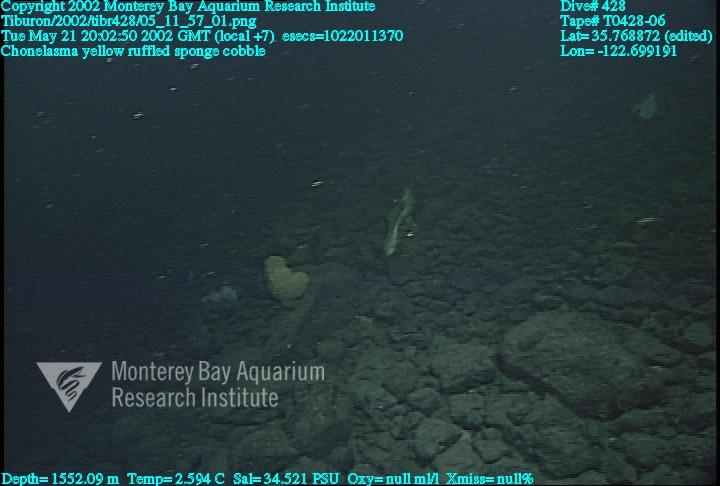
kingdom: Animalia
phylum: Porifera
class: Hexactinellida
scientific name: Hexactinellida
